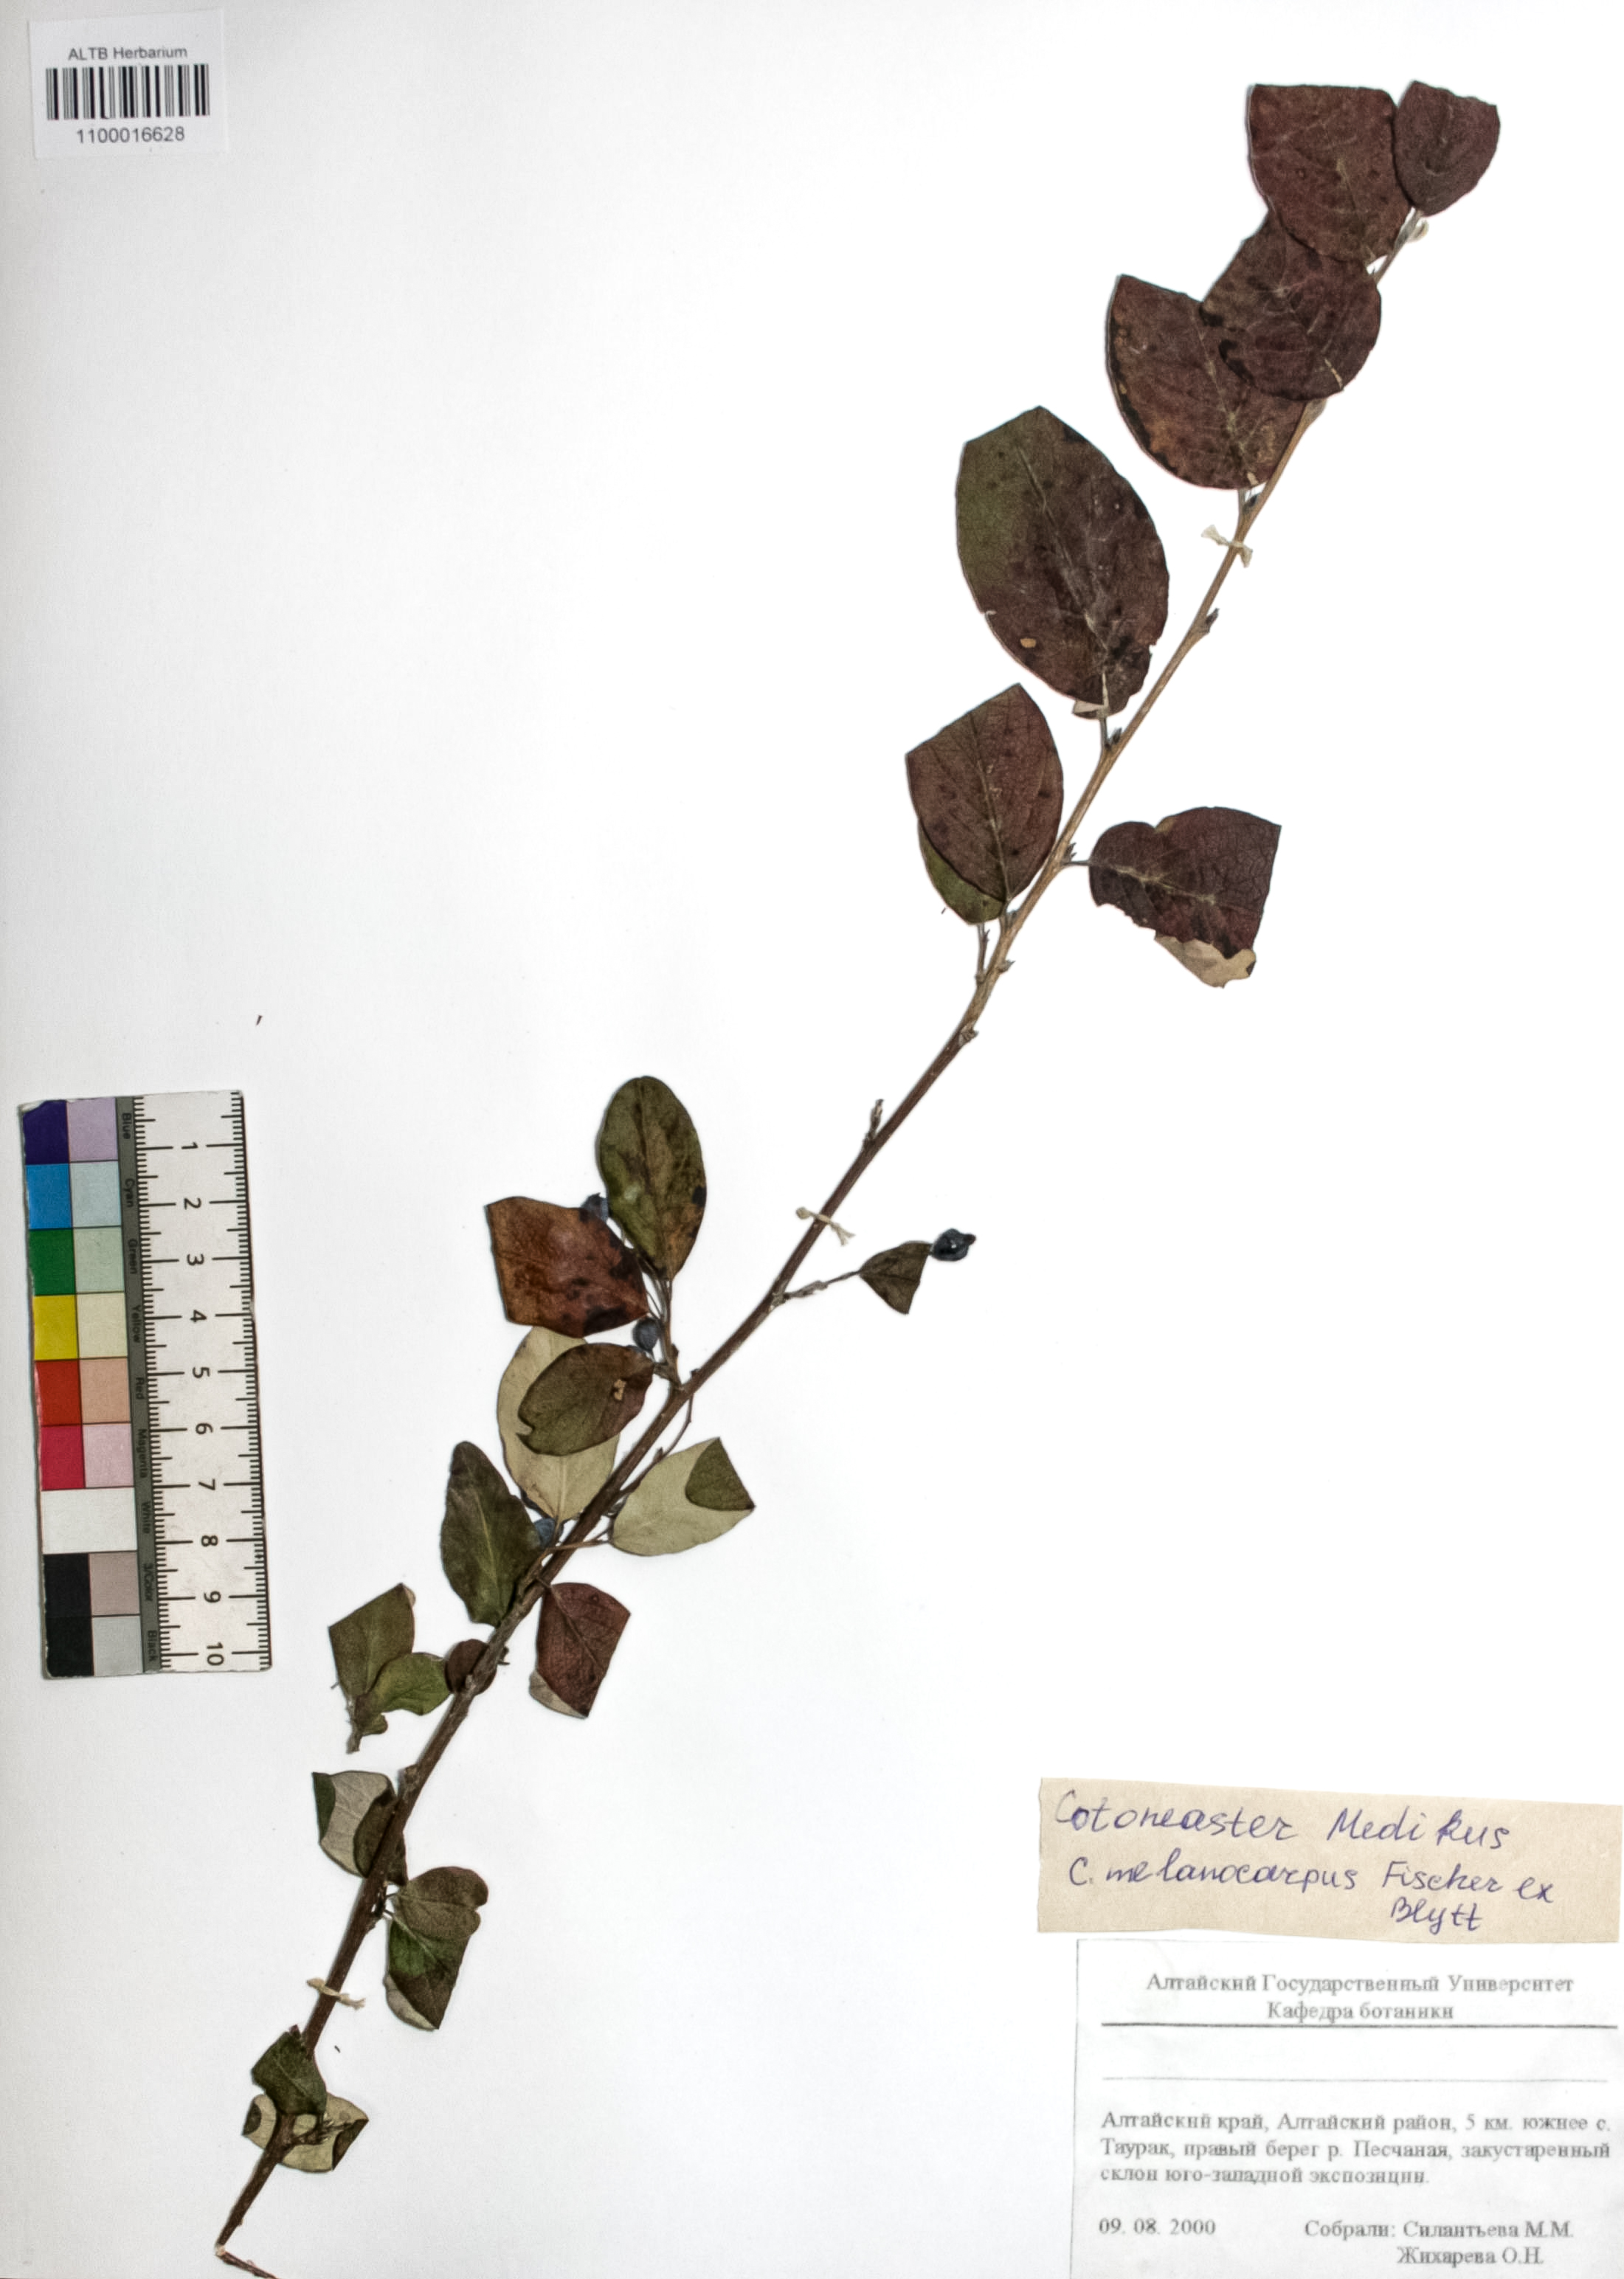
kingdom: Plantae
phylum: Tracheophyta
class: Magnoliopsida
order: Rosales
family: Rosaceae
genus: Cotoneaster
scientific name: Cotoneaster niger
